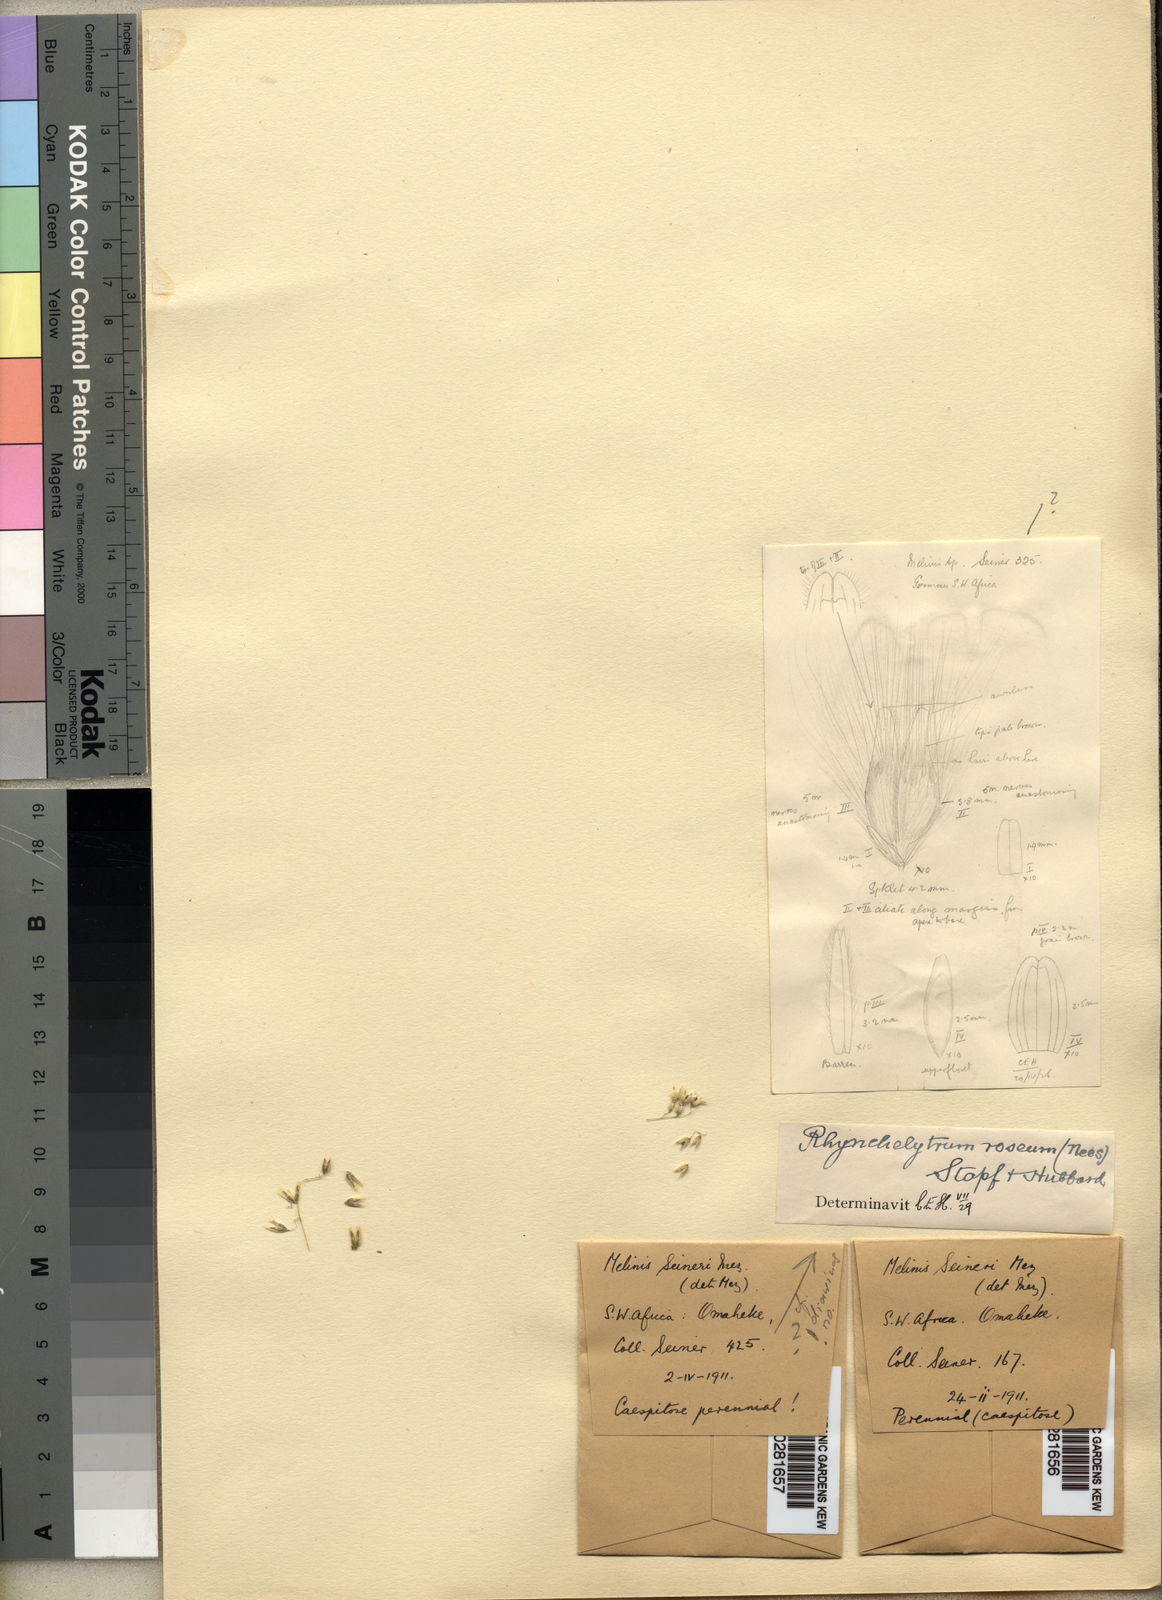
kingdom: Plantae
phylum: Tracheophyta
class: Liliopsida
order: Poales
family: Poaceae
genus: Melinis
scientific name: Melinis repens
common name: Rose natal grass
